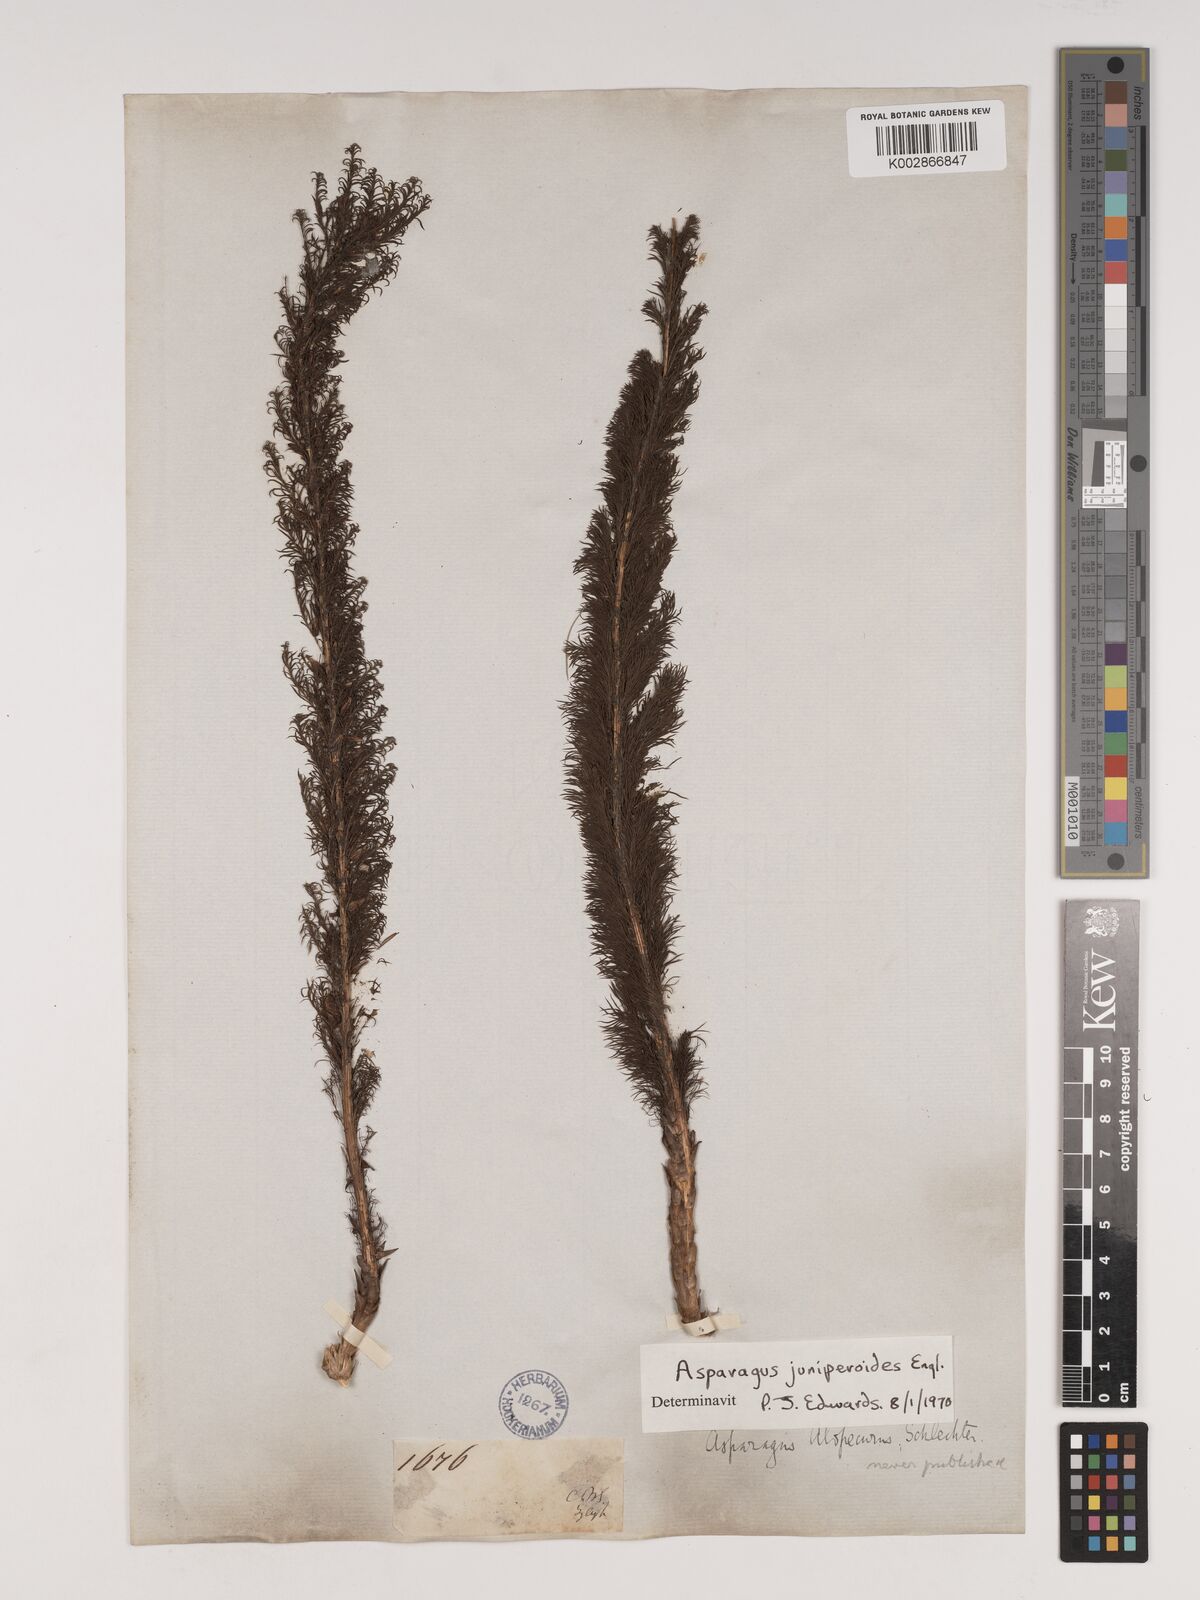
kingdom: Plantae
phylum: Tracheophyta
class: Liliopsida
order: Asparagales
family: Asparagaceae
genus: Asparagus
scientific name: Asparagus juniperoides
